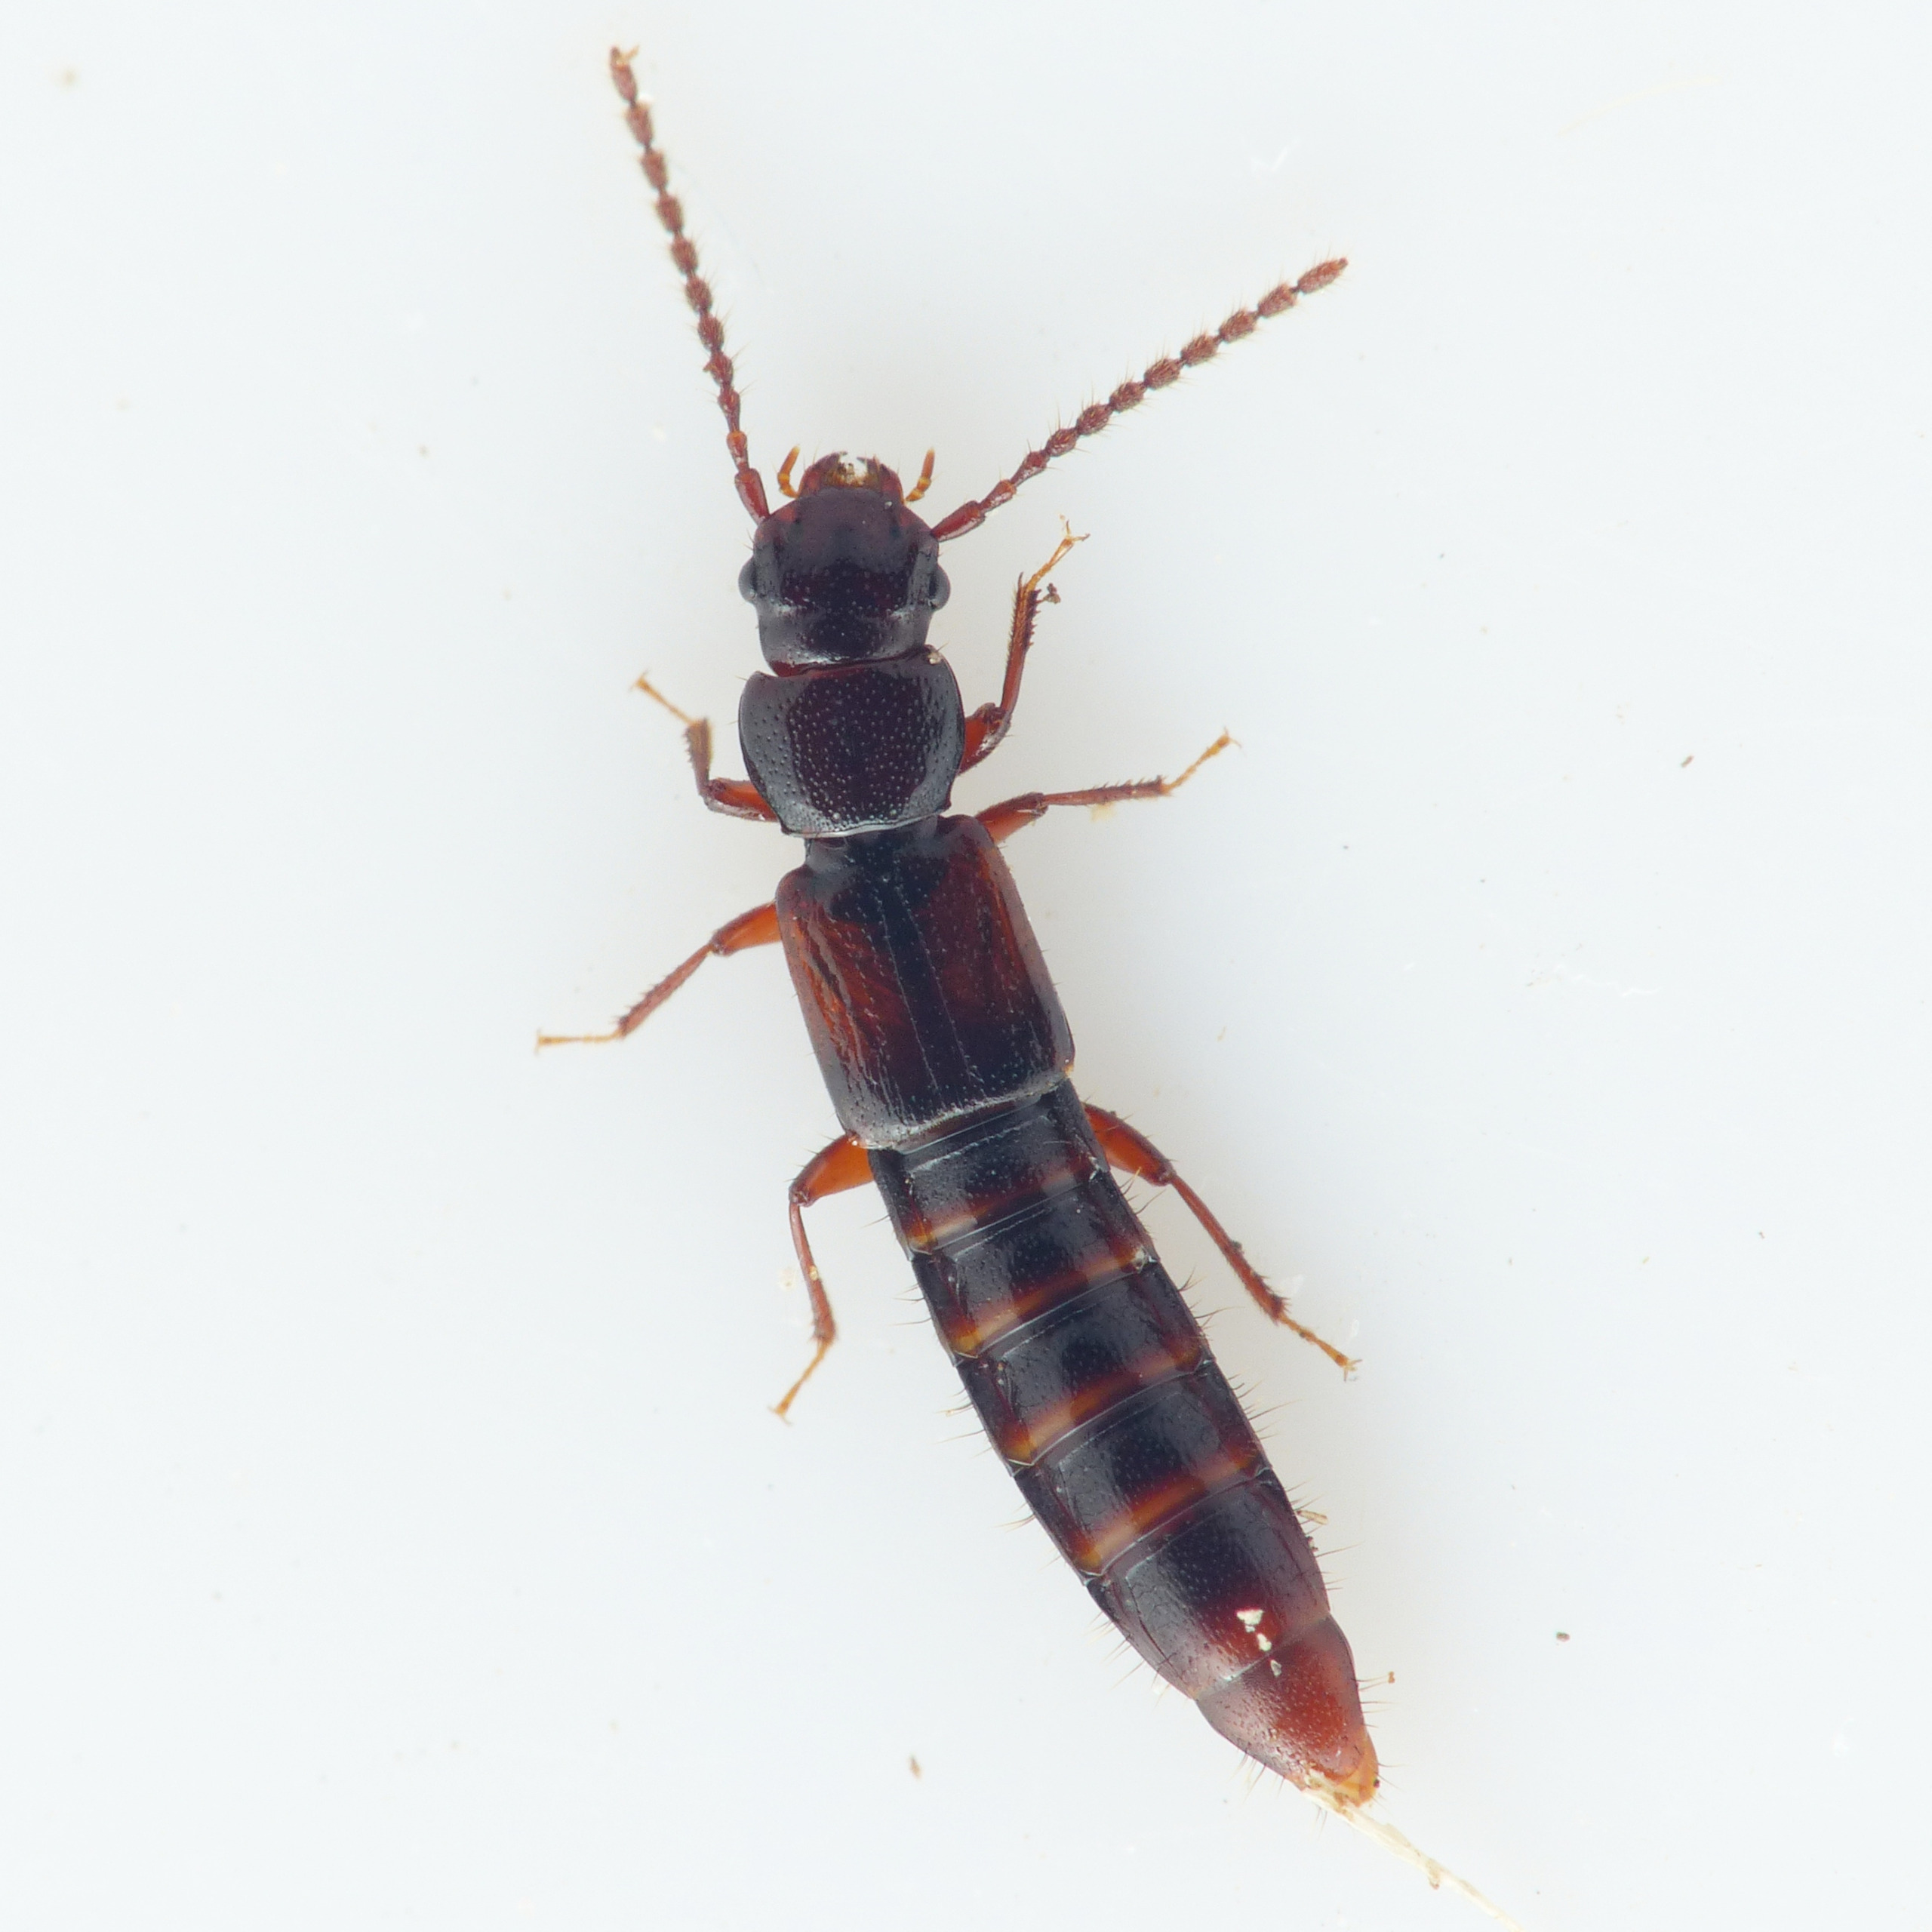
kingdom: Animalia
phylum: Arthropoda
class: Insecta
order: Coleoptera
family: Staphylinidae
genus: Siagonium
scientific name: Siagonium quadricorne
